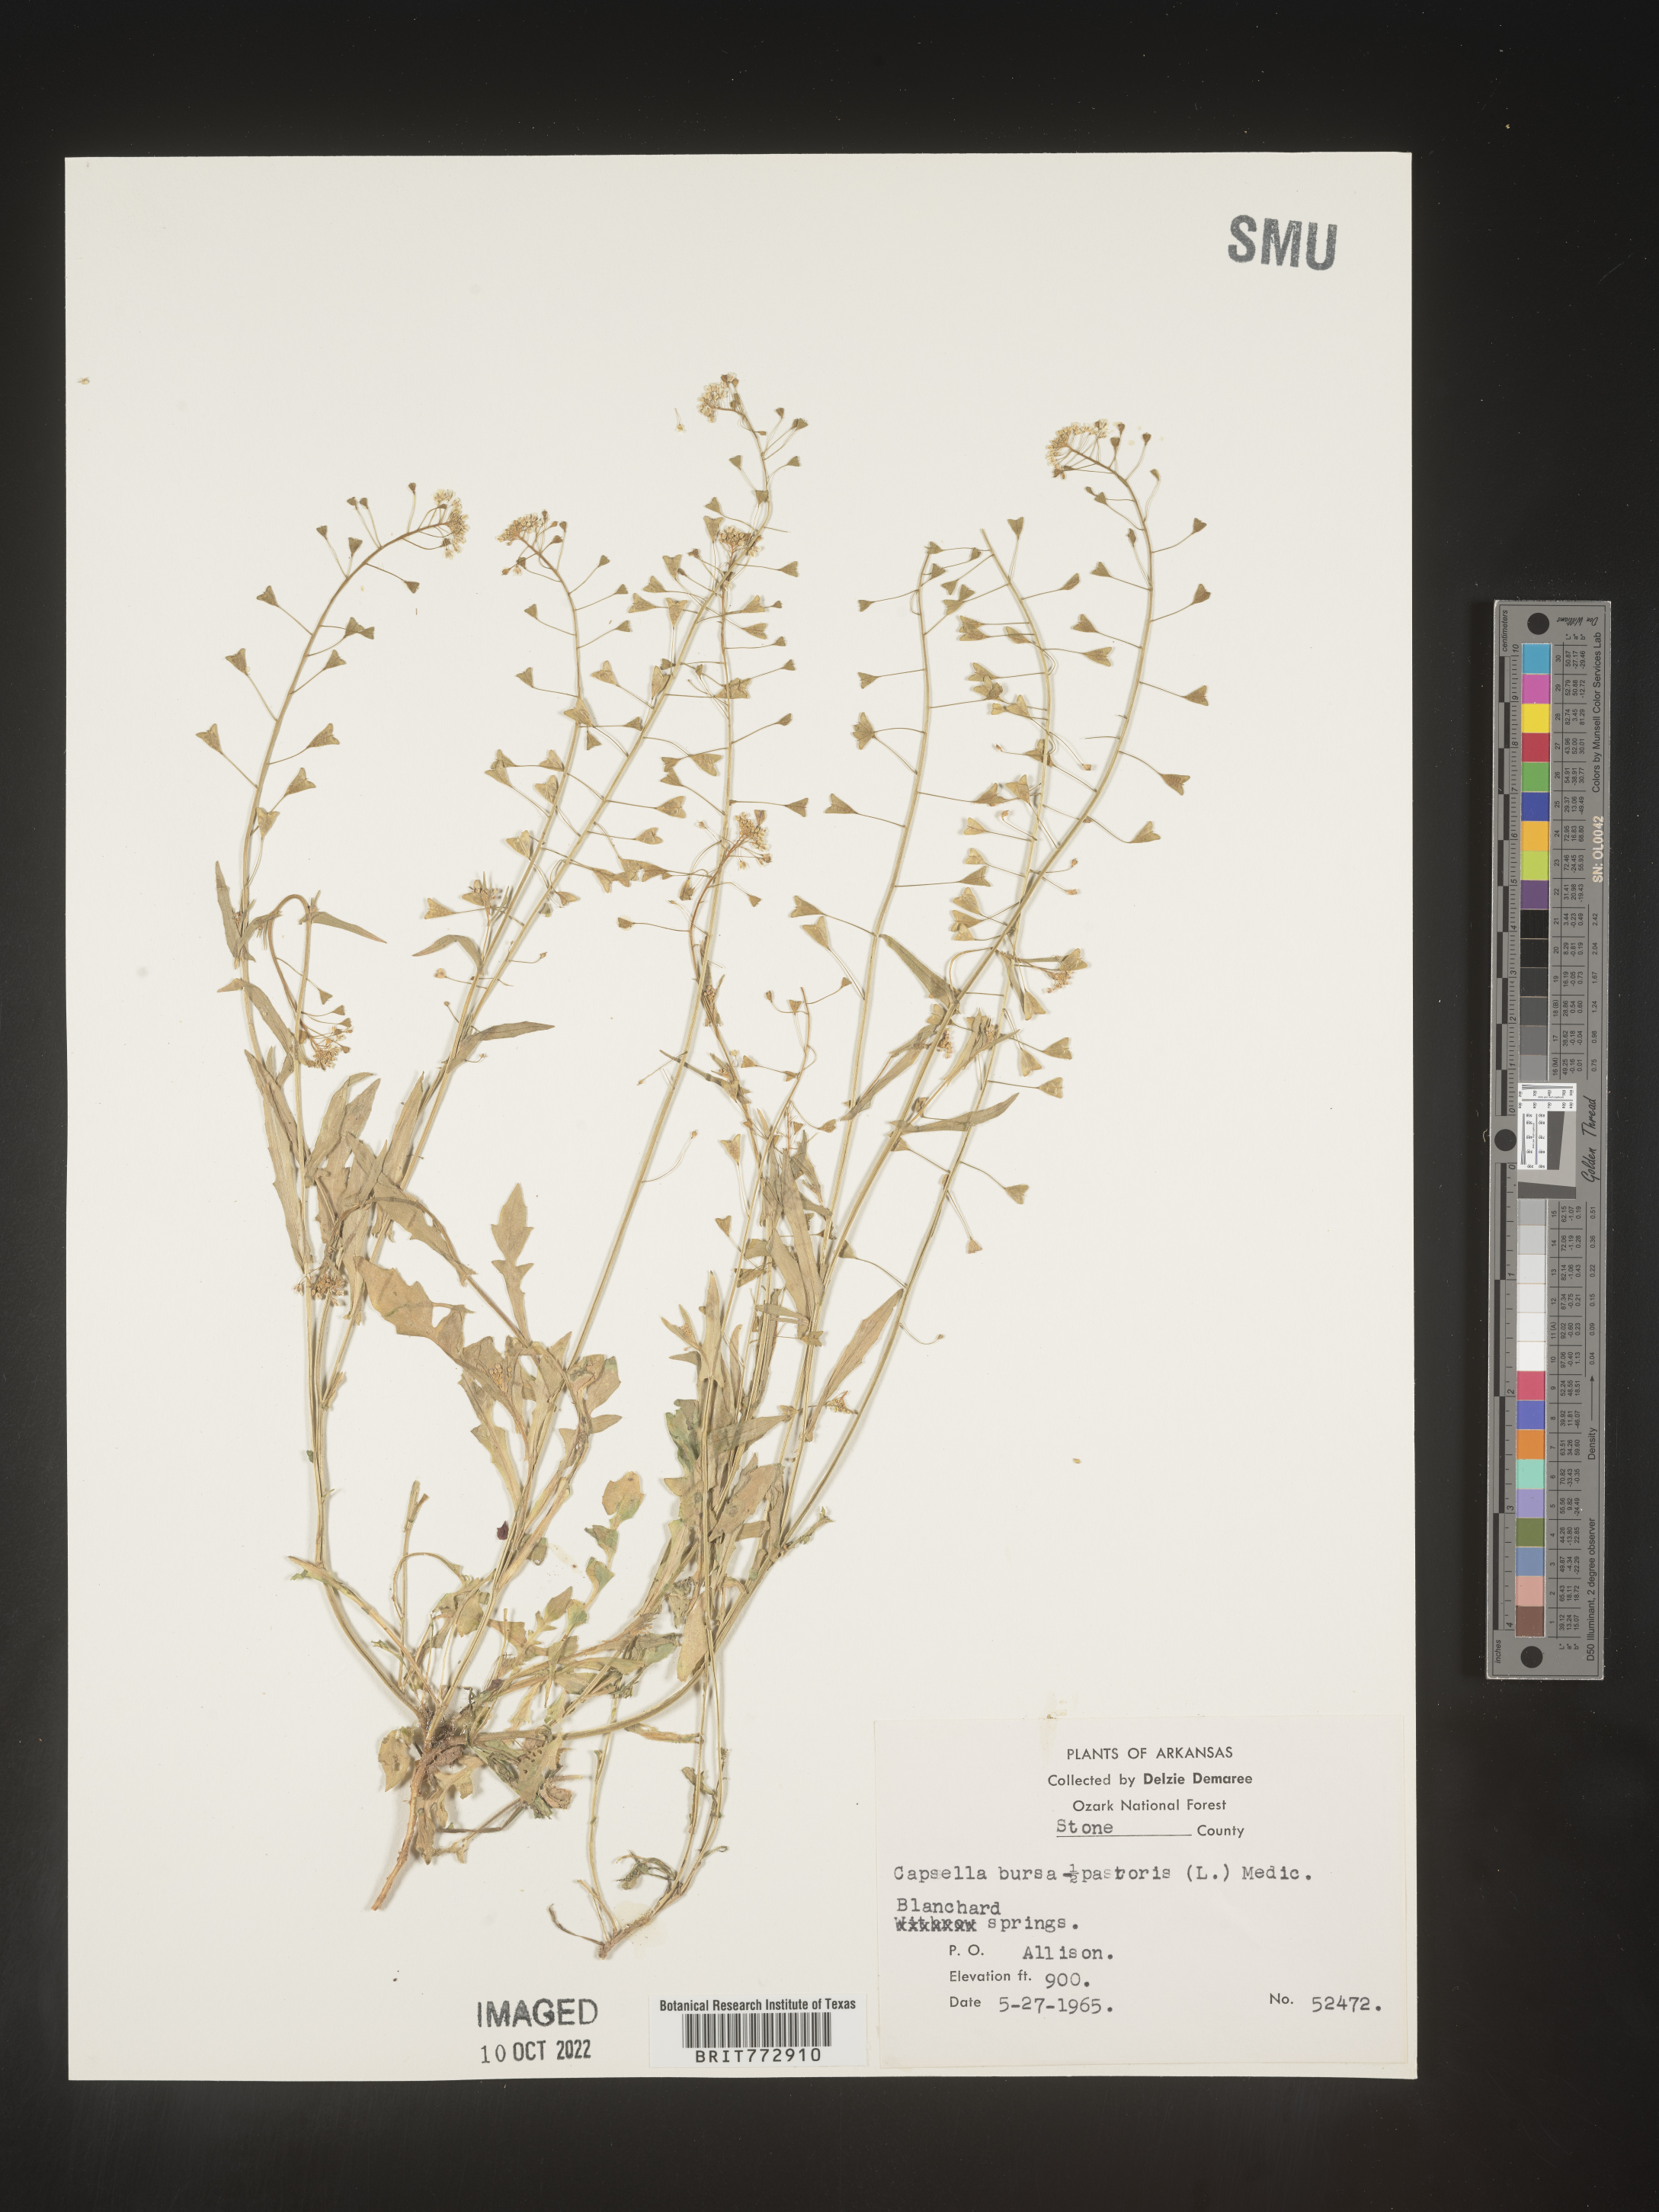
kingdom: Plantae
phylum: Tracheophyta
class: Magnoliopsida
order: Brassicales
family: Brassicaceae
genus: Capsella
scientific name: Capsella bursa-pastoris
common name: Shepherd's purse
